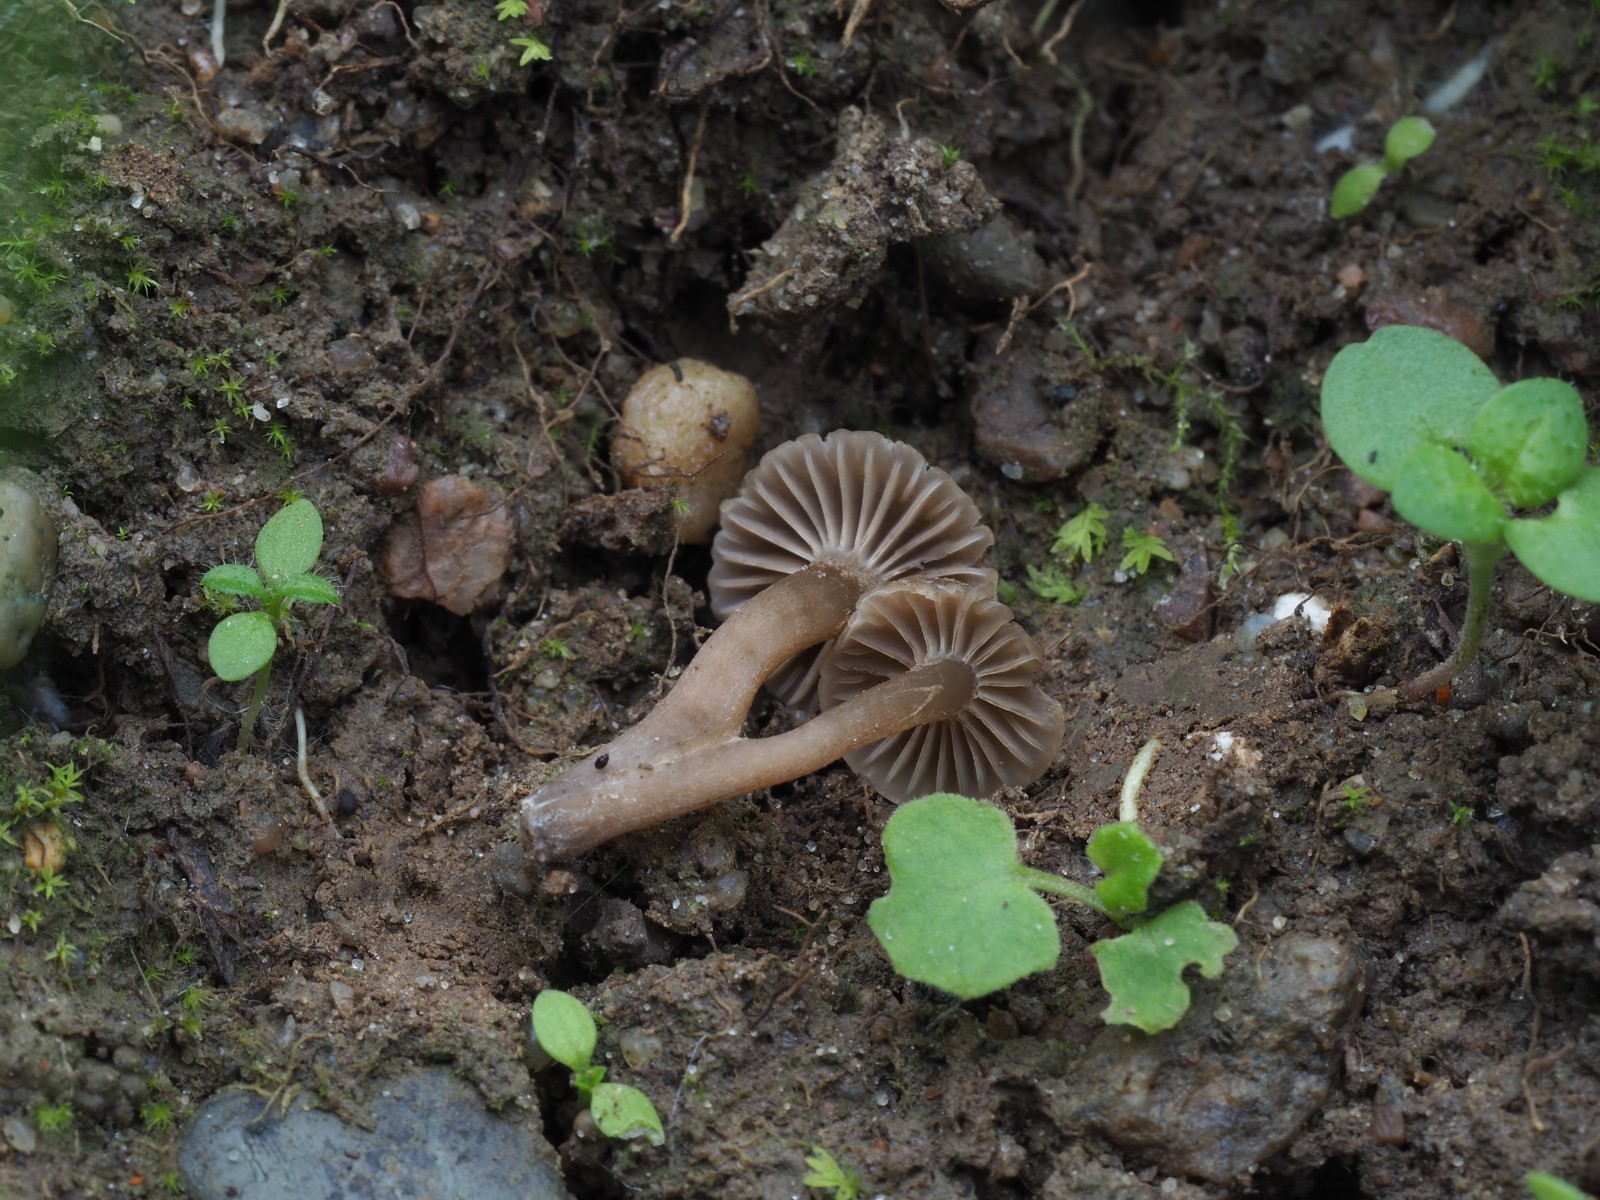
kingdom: Fungi
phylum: Basidiomycota
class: Agaricomycetes
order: Agaricales
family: Clavariaceae
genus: Hodophilus
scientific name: Hodophilus
